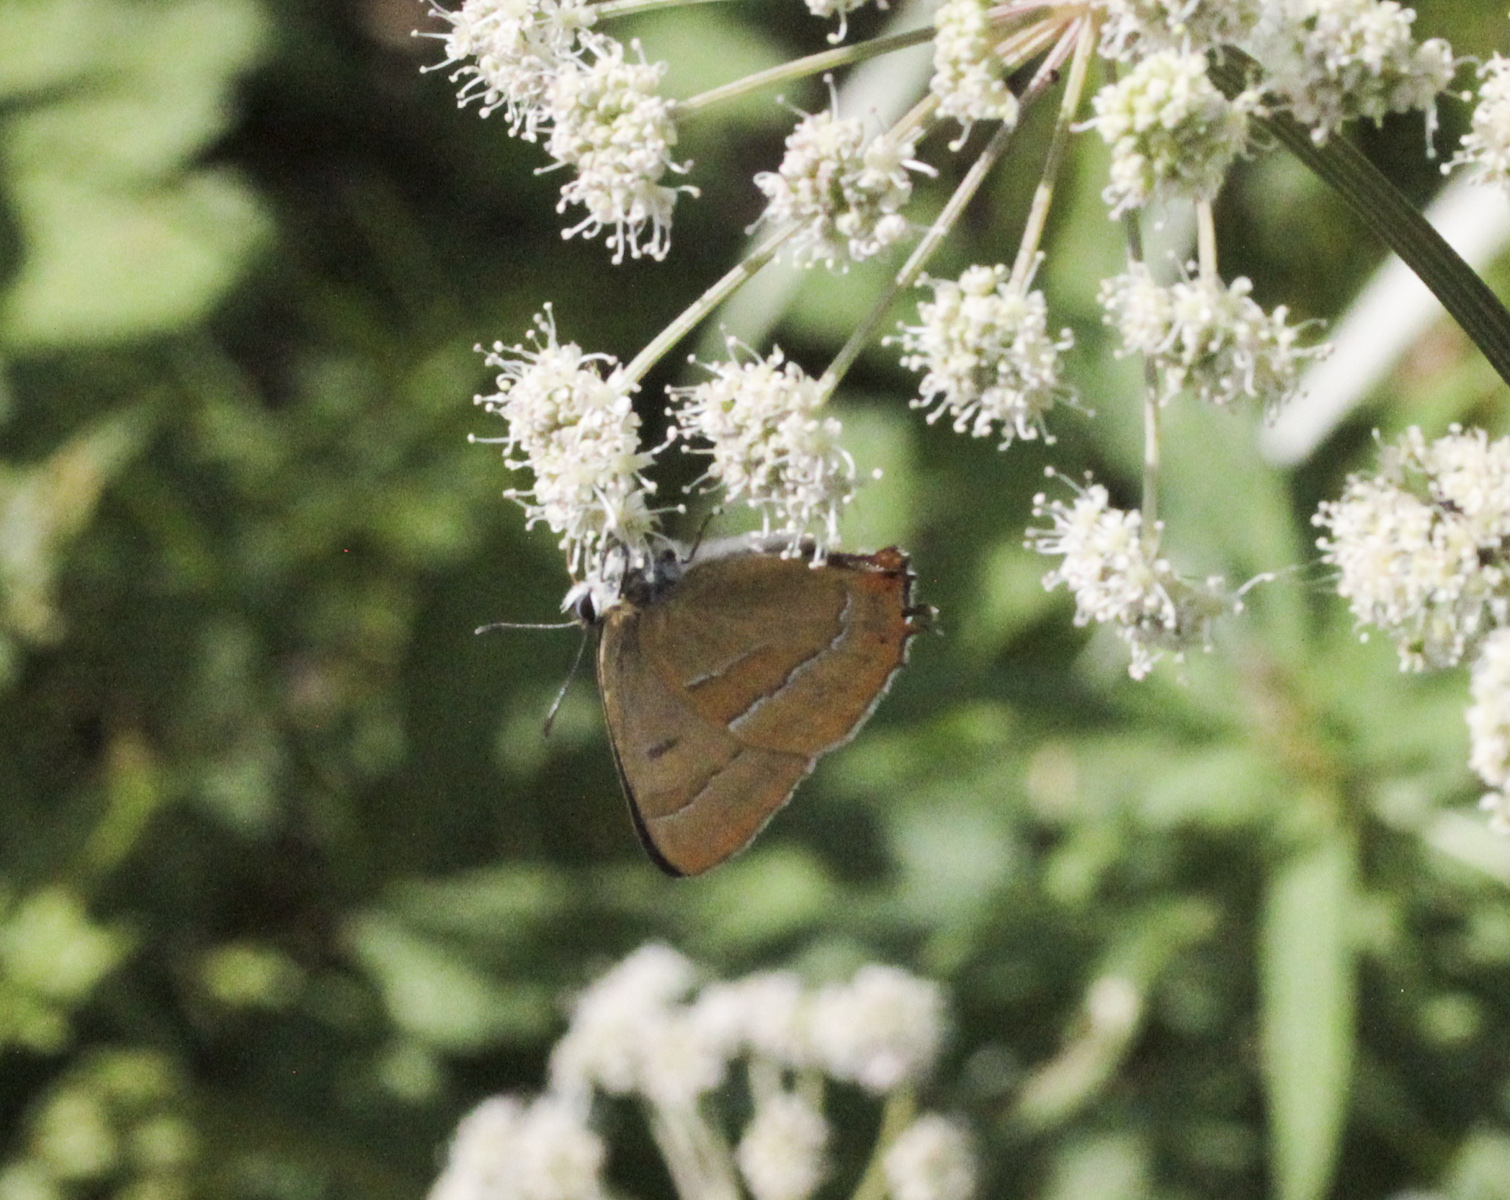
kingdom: Animalia
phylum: Arthropoda
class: Insecta
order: Lepidoptera
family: Lycaenidae
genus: Thecla
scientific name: Thecla betulae
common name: Brown hairstreak
